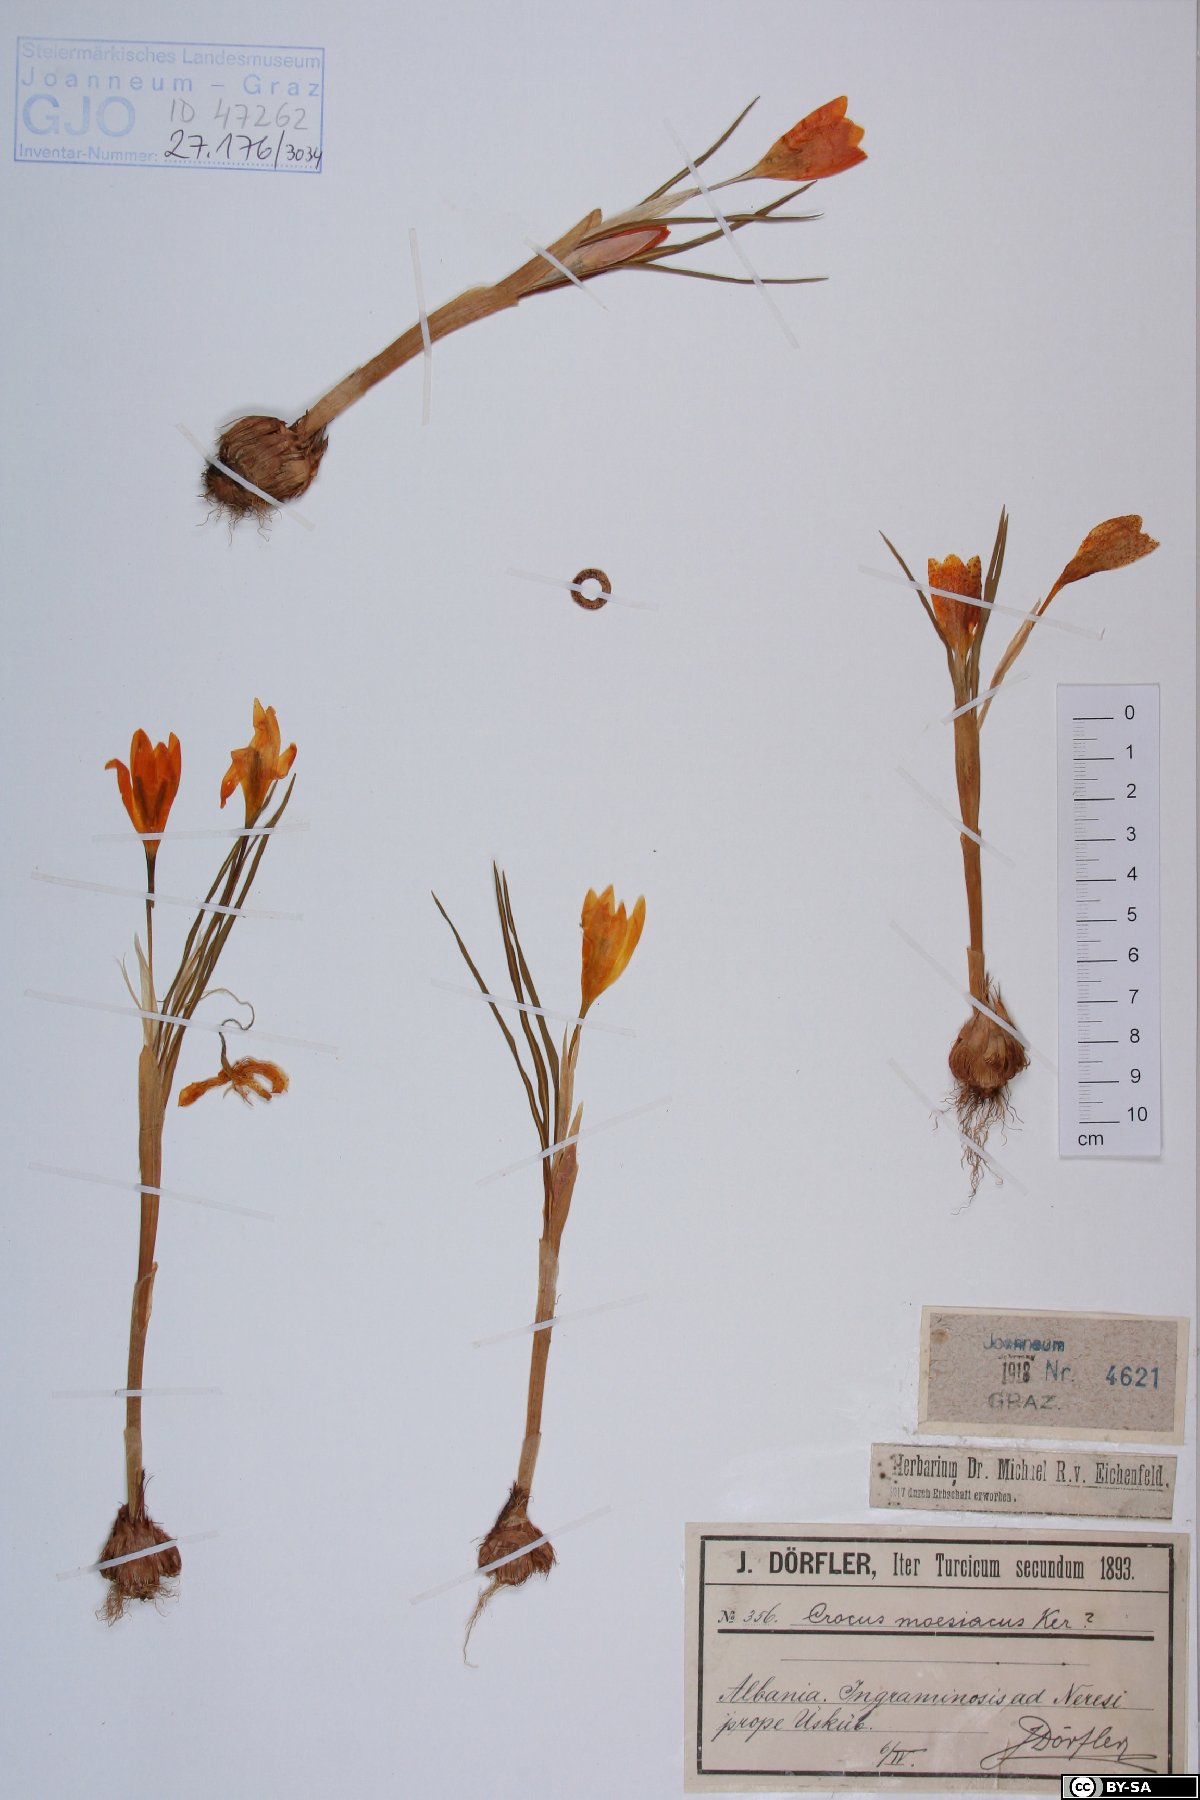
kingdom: Plantae
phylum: Tracheophyta
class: Liliopsida
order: Asparagales
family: Iridaceae
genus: Crocus
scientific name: Crocus flavus
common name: Yellow crocus
